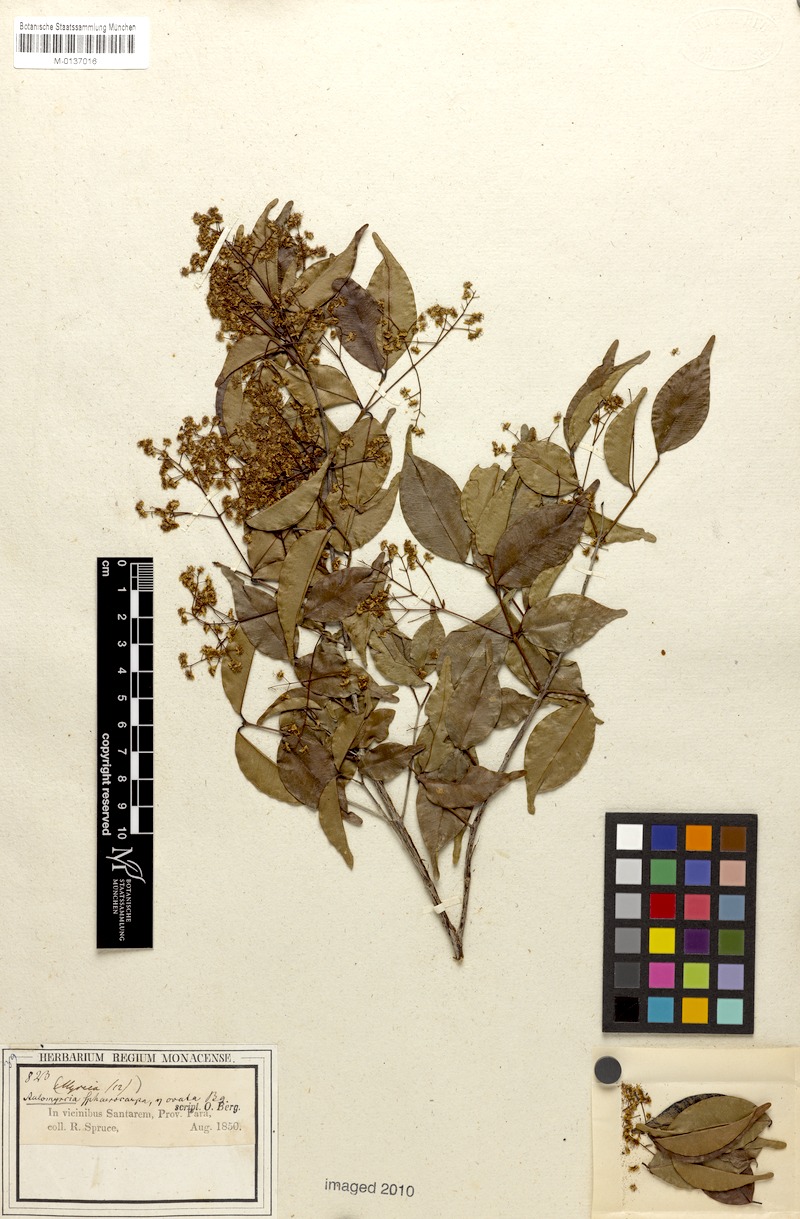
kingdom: Plantae
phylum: Tracheophyta
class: Magnoliopsida
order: Myrtales
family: Myrtaceae
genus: Myrcia
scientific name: Myrcia multiflora
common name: Pedra hume
